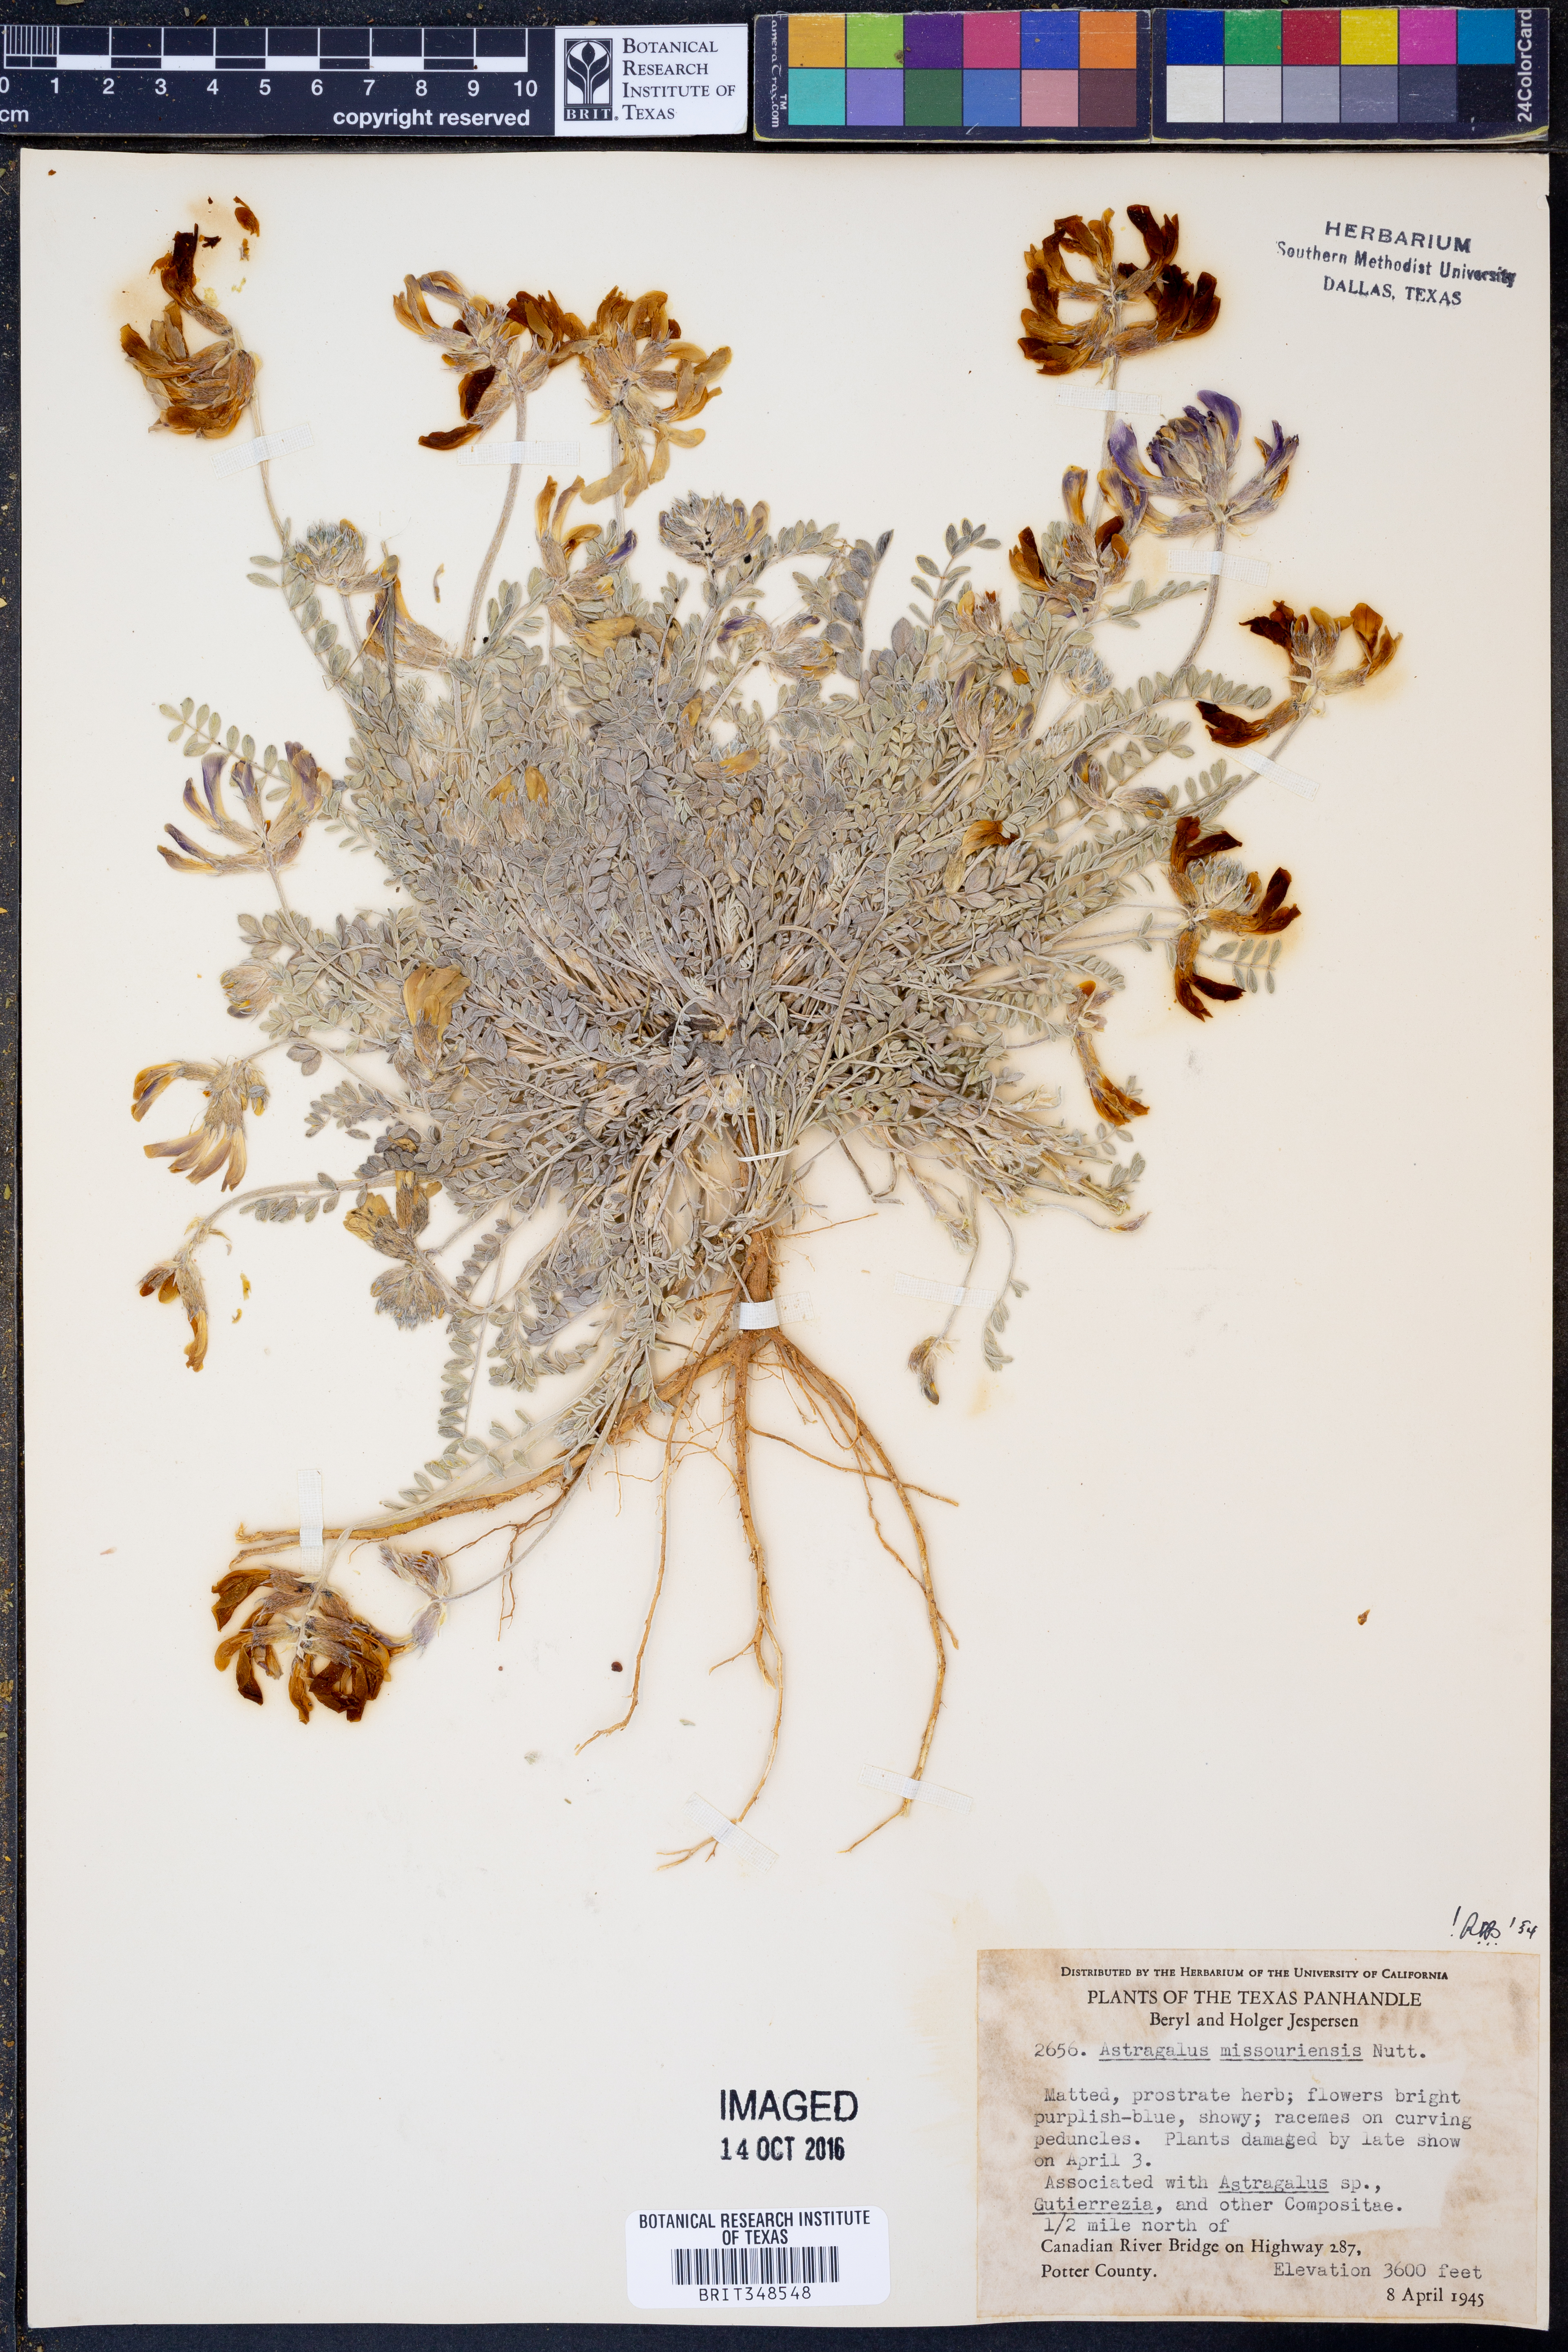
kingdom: Plantae
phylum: Tracheophyta
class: Magnoliopsida
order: Fabales
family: Fabaceae
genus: Astragalus
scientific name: Astragalus missouriensis
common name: Missouri milk-vetch
